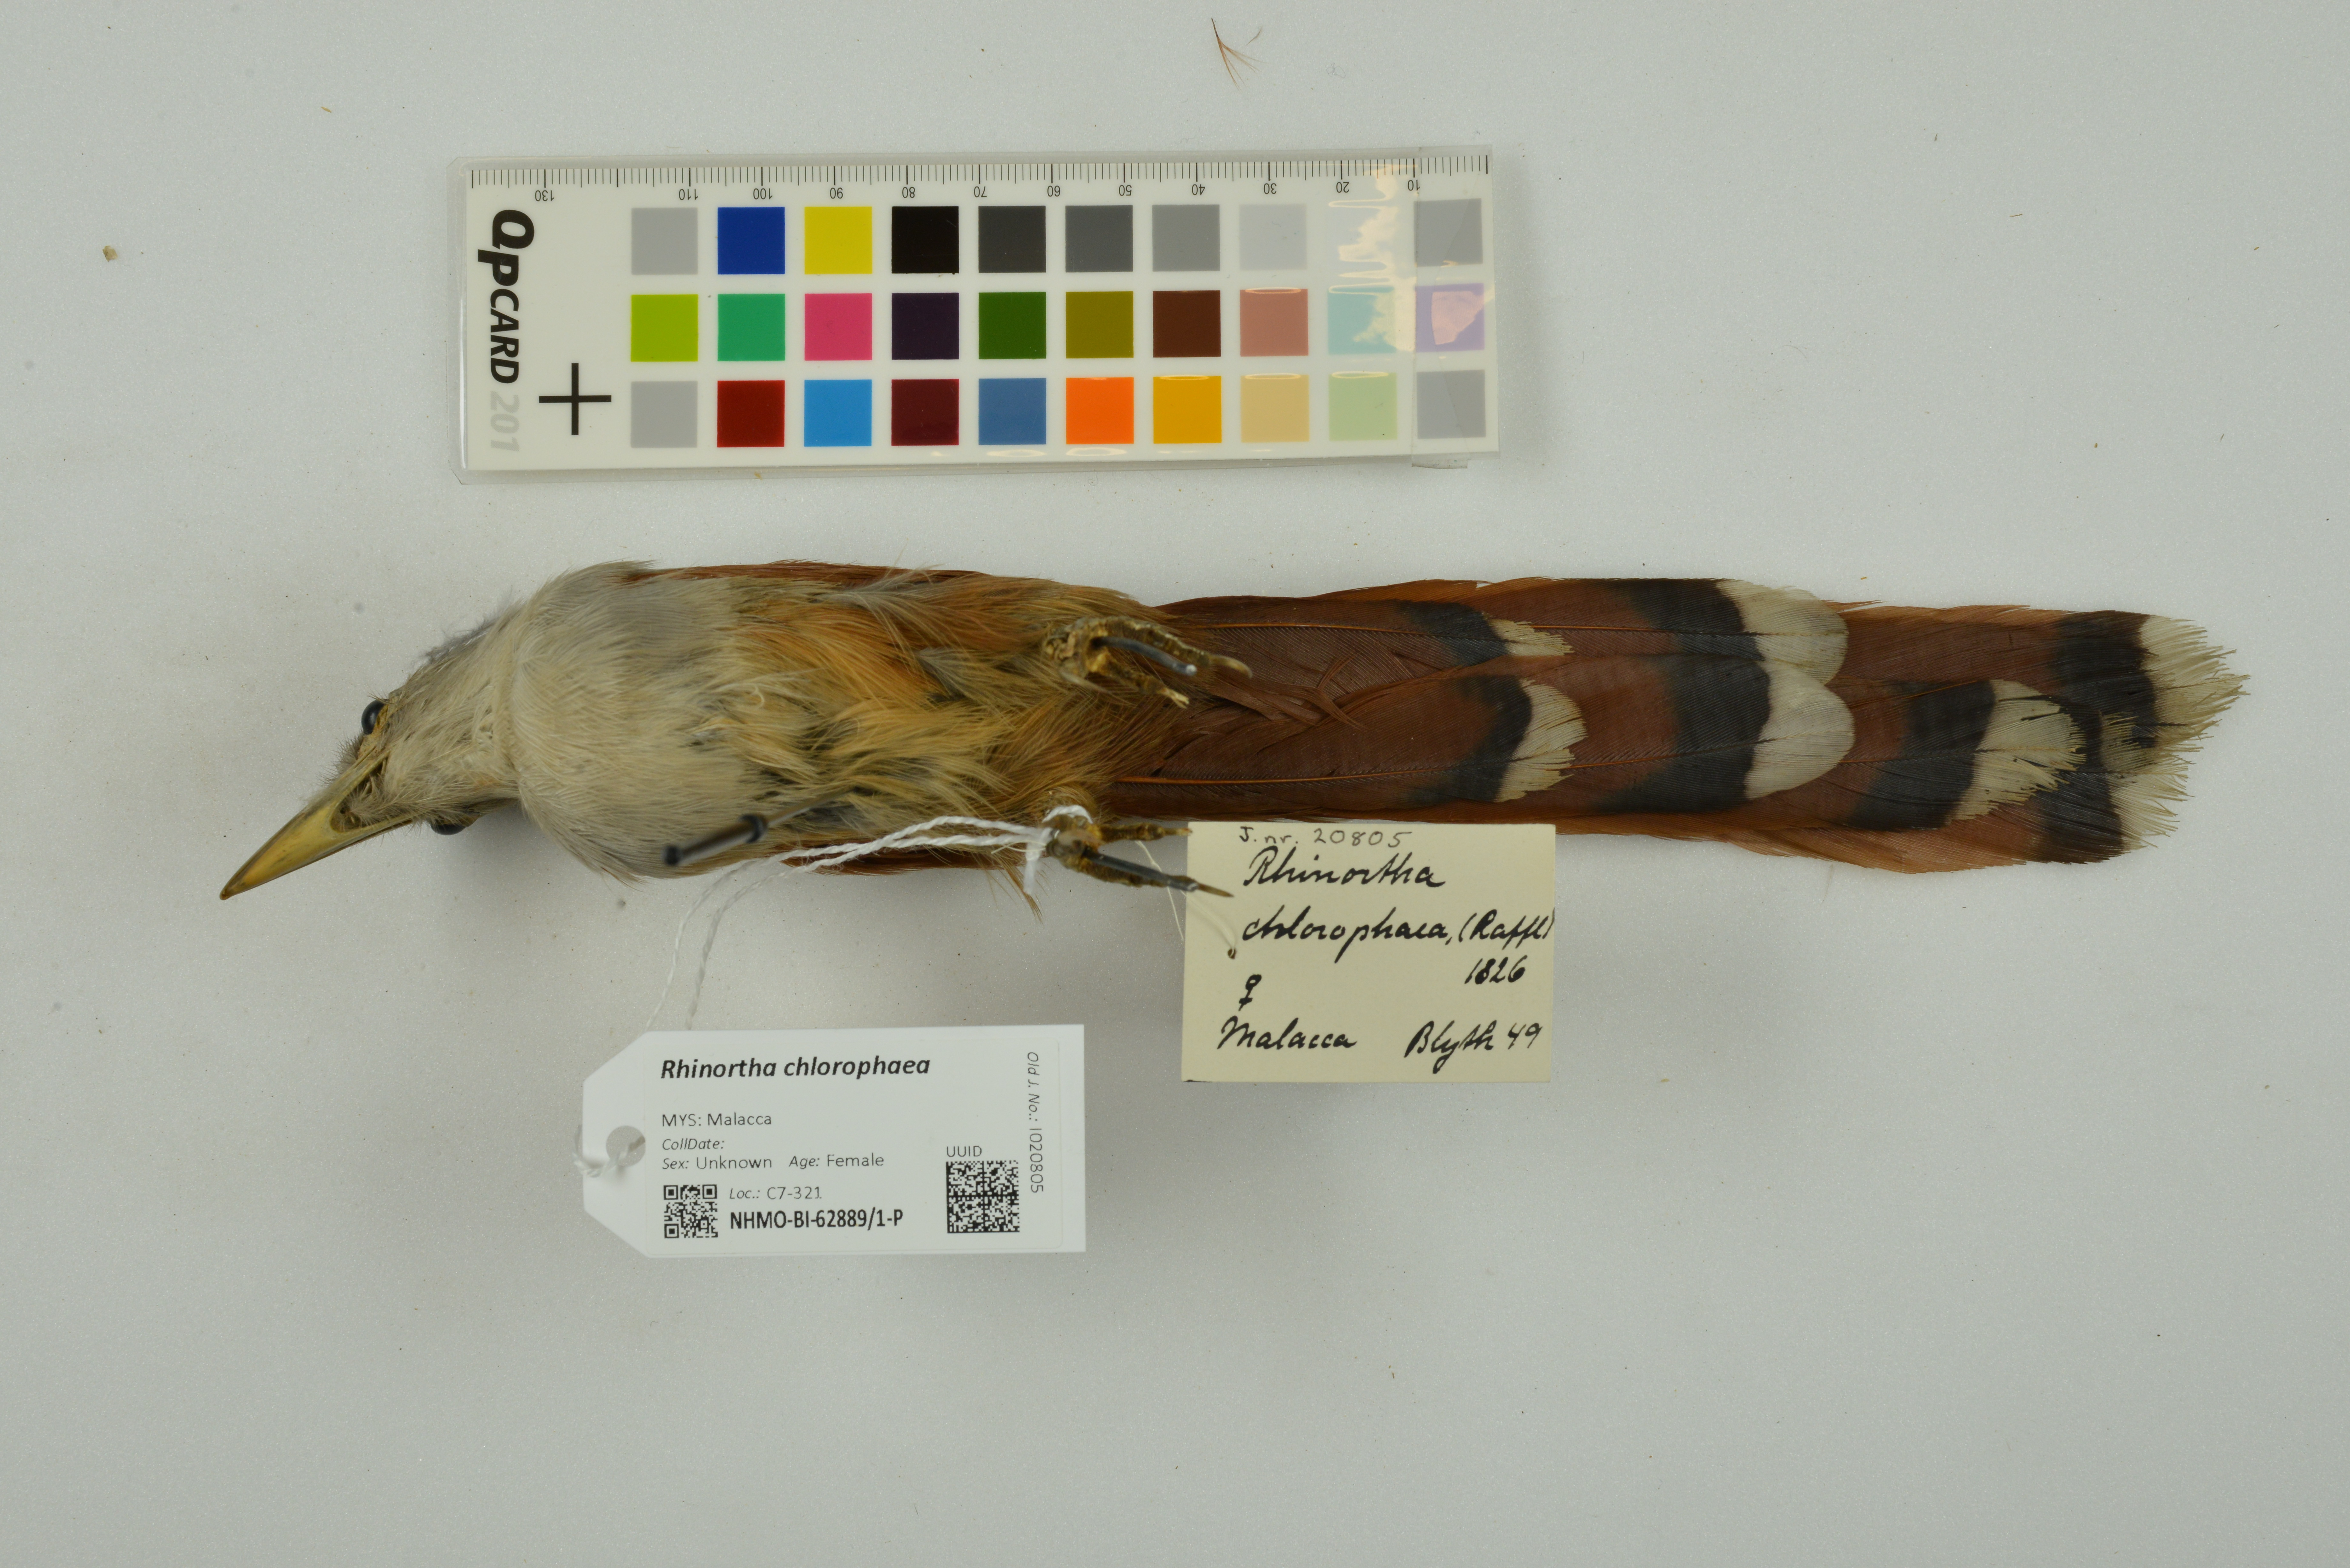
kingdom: Animalia
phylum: Chordata
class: Aves
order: Cuculiformes
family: Cuculidae
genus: Rhinortha
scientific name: Rhinortha chlorophaea
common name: Raffles's malkoha
